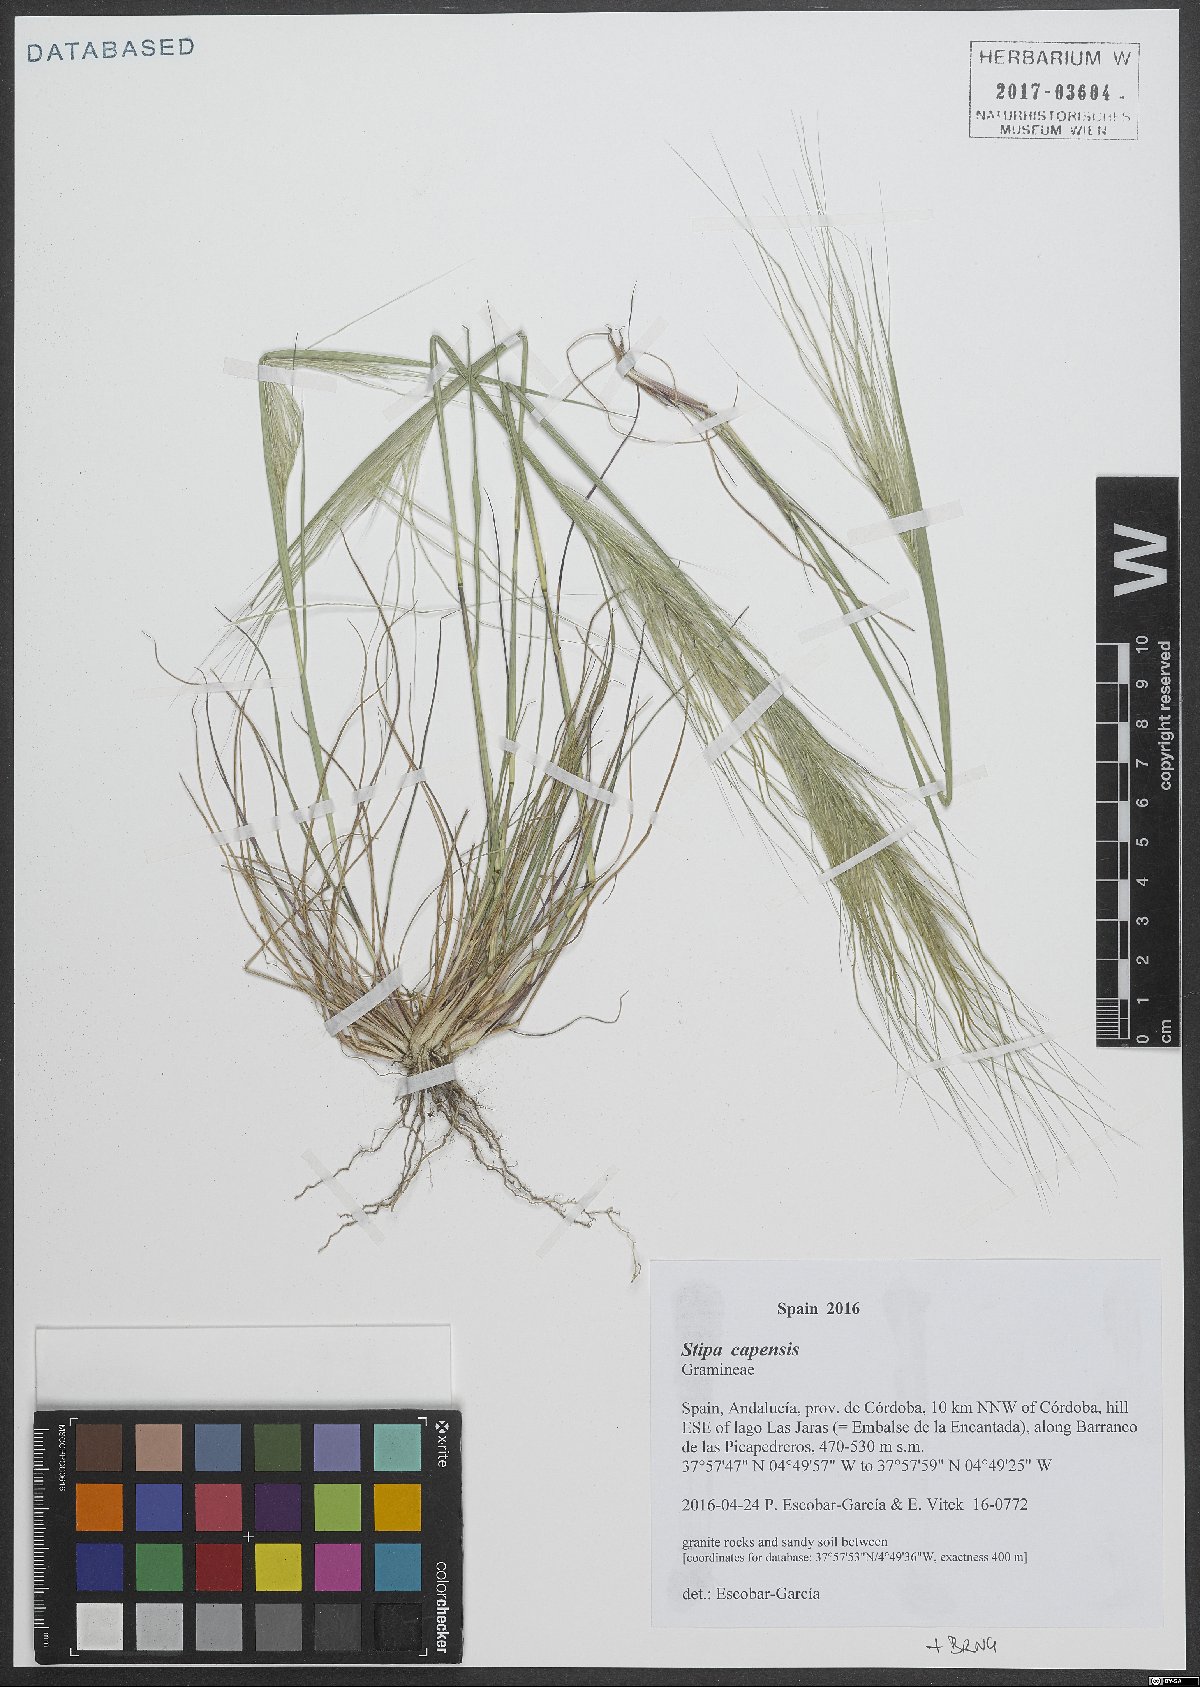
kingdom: Plantae
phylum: Tracheophyta
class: Liliopsida
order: Poales
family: Poaceae
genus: Stipellula
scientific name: Stipellula capensis
